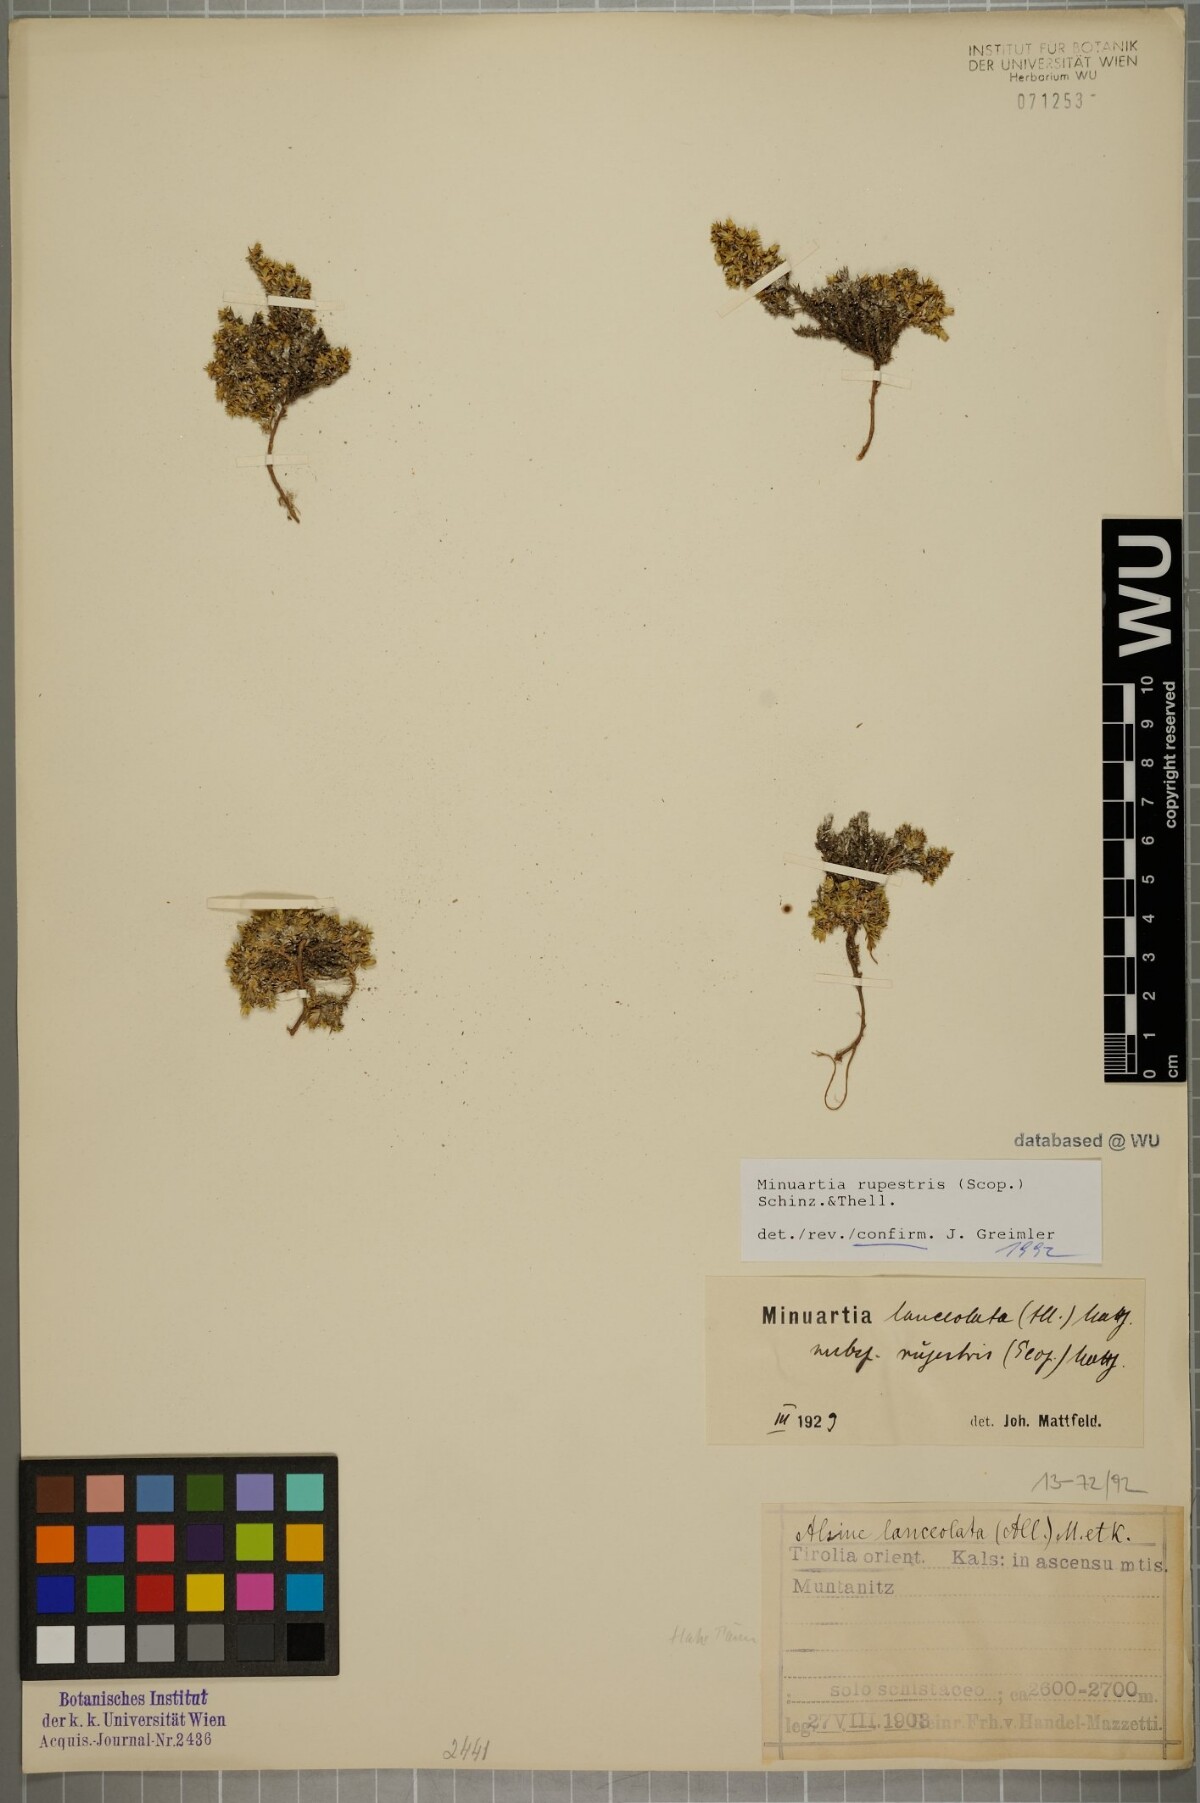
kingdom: Plantae
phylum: Tracheophyta
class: Magnoliopsida
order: Caryophyllales
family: Caryophyllaceae
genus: Facchinia
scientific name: Facchinia rupestris
